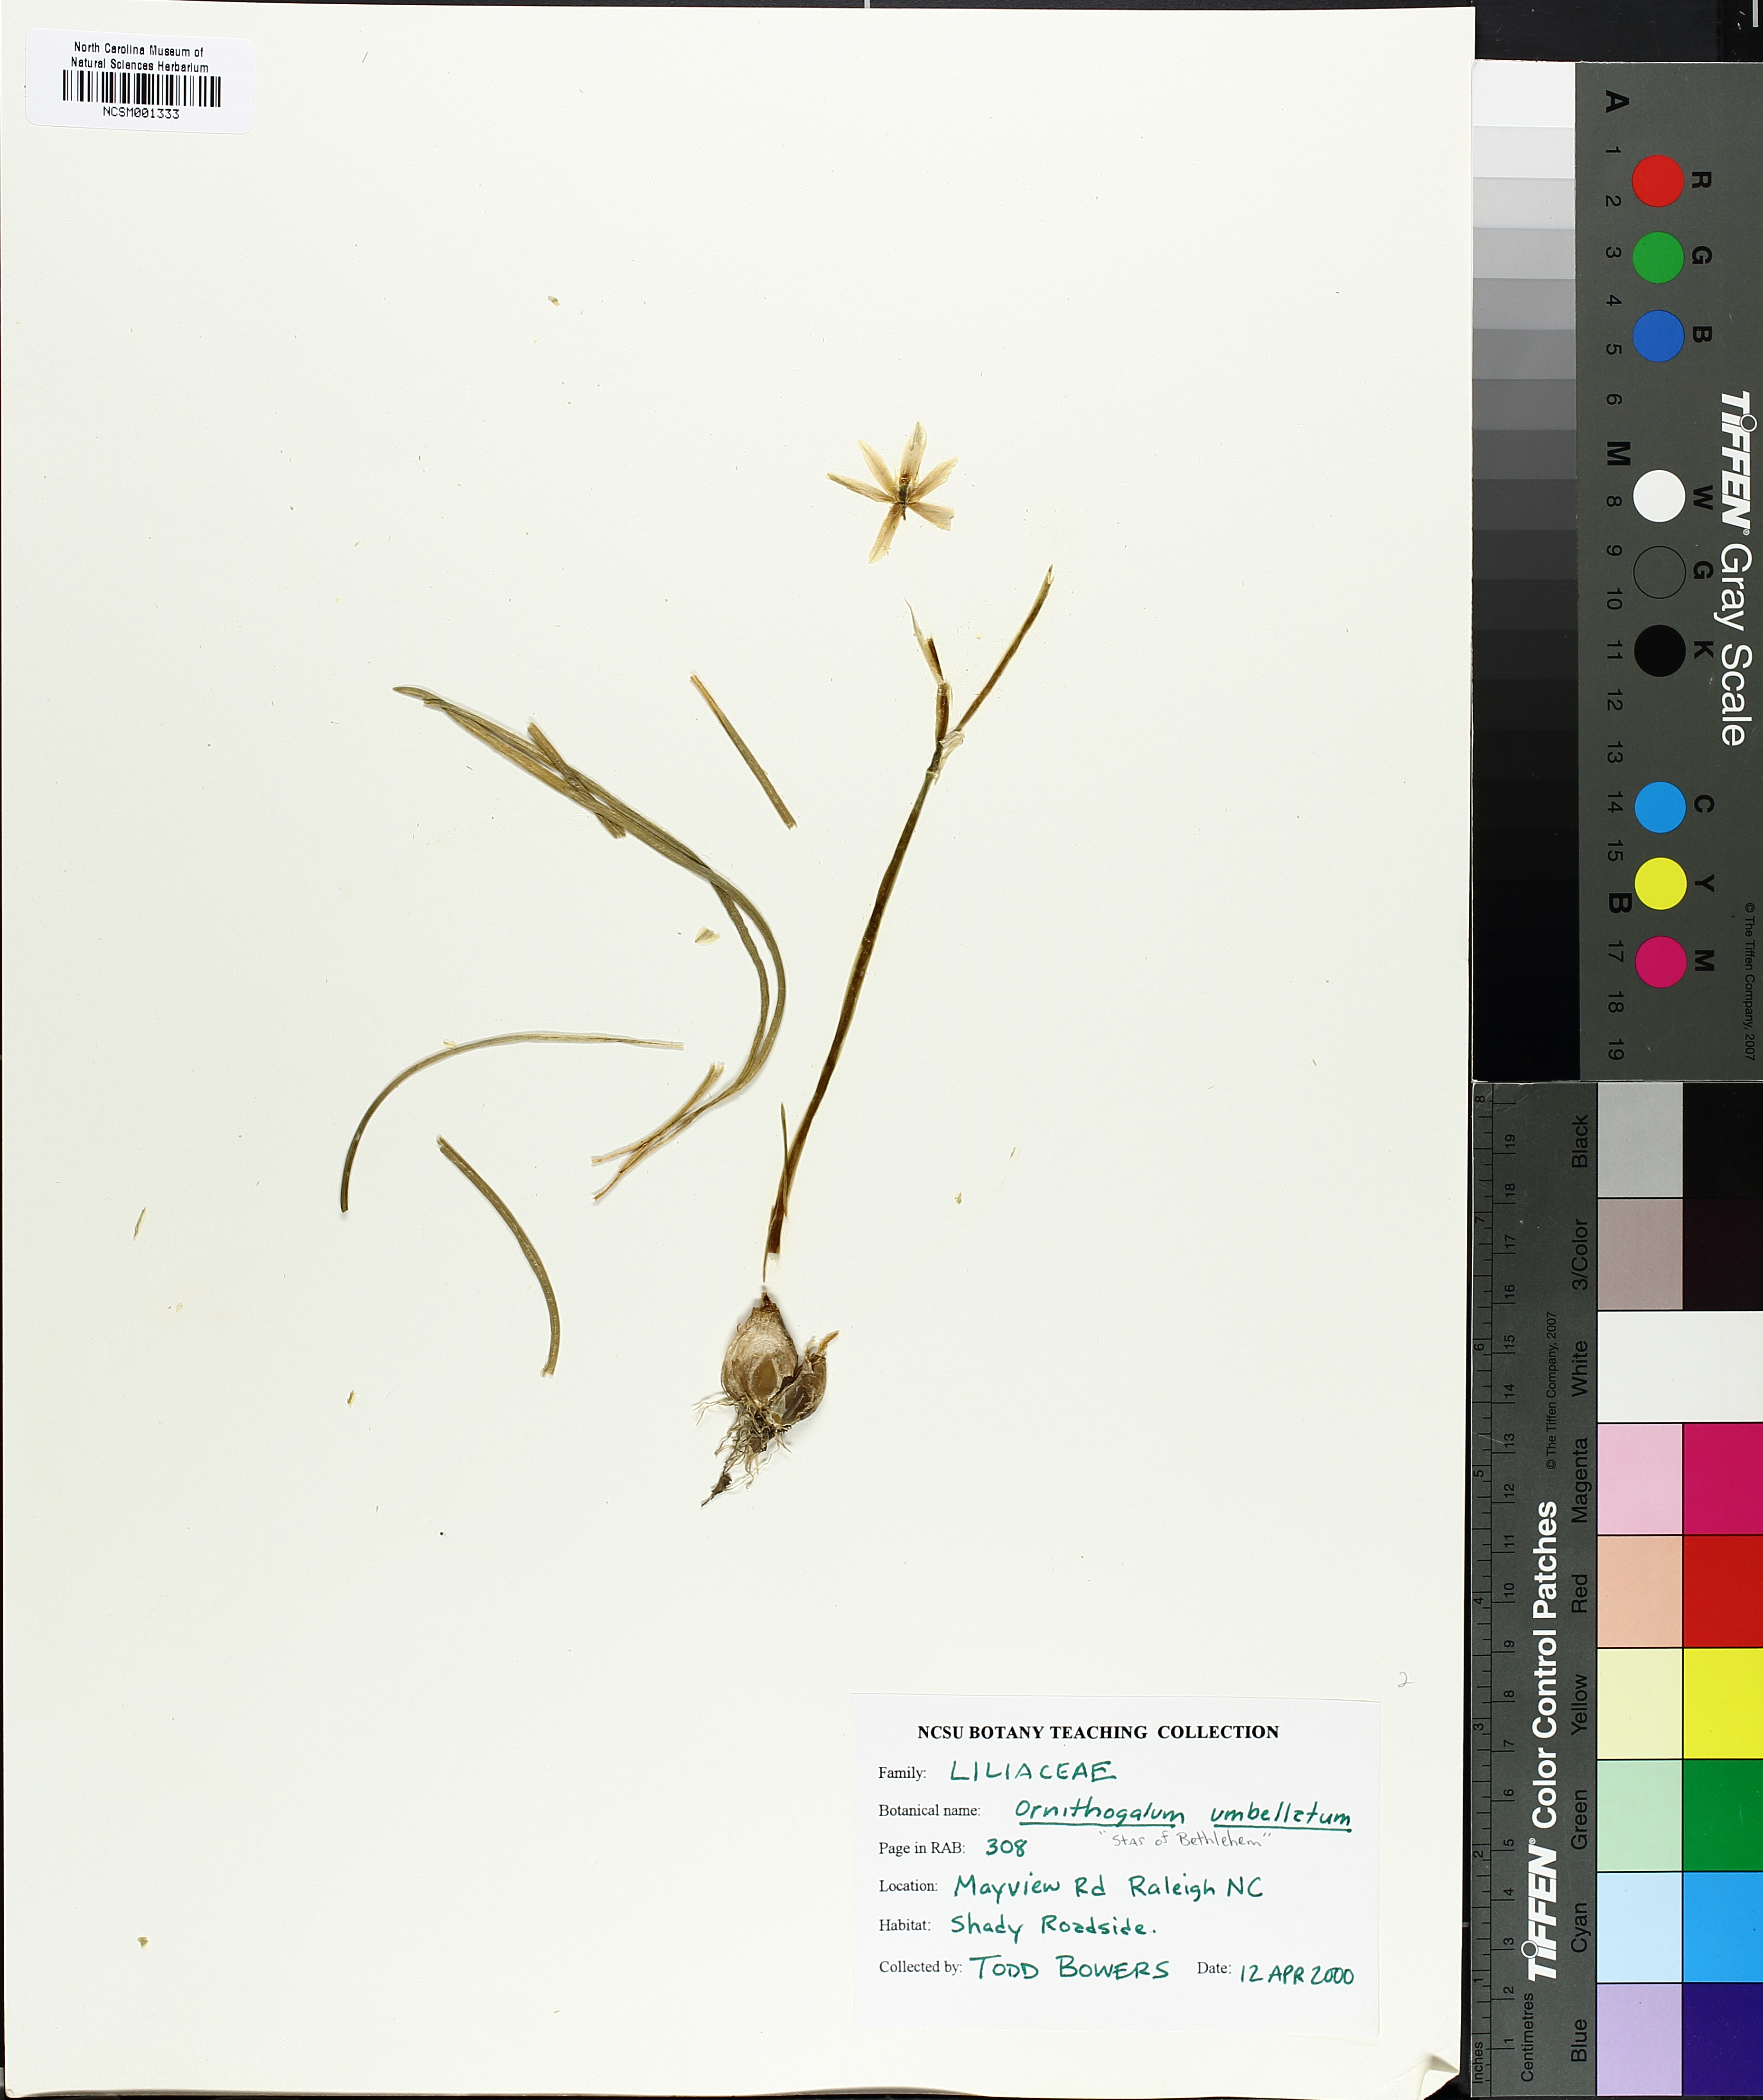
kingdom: Plantae
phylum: Tracheophyta
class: Liliopsida
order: Asparagales
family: Asparagaceae
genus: Ornithogalum
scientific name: Ornithogalum umbellatum
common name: Garden star-of-bethlehem
